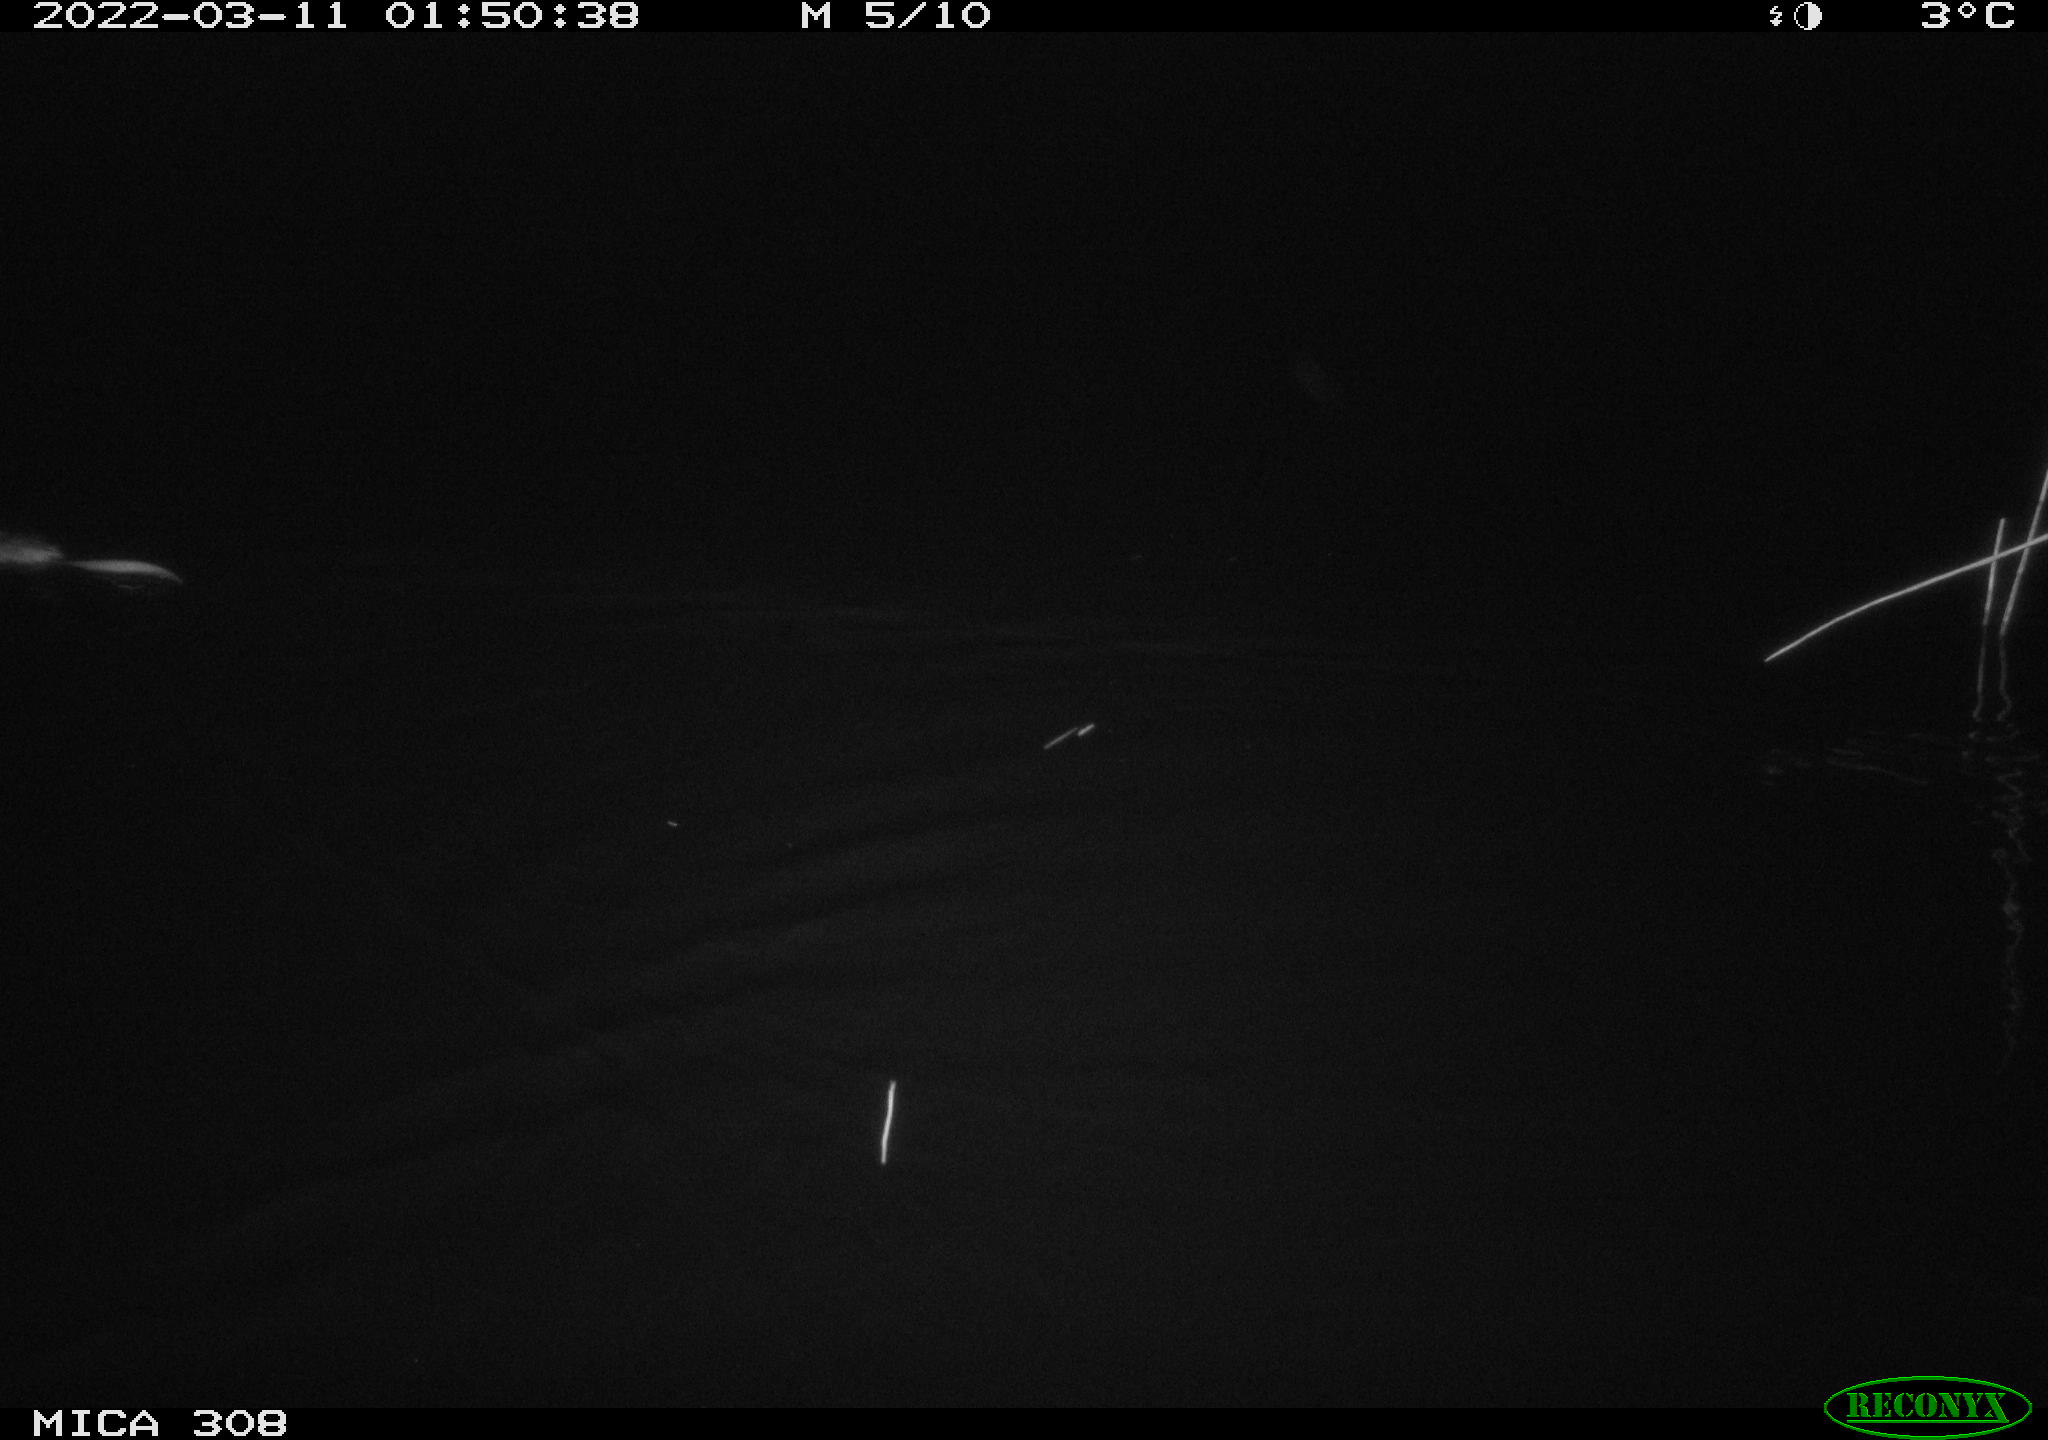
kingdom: Animalia
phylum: Chordata
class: Mammalia
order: Rodentia
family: Cricetidae
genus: Ondatra
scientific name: Ondatra zibethicus
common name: Muskrat
